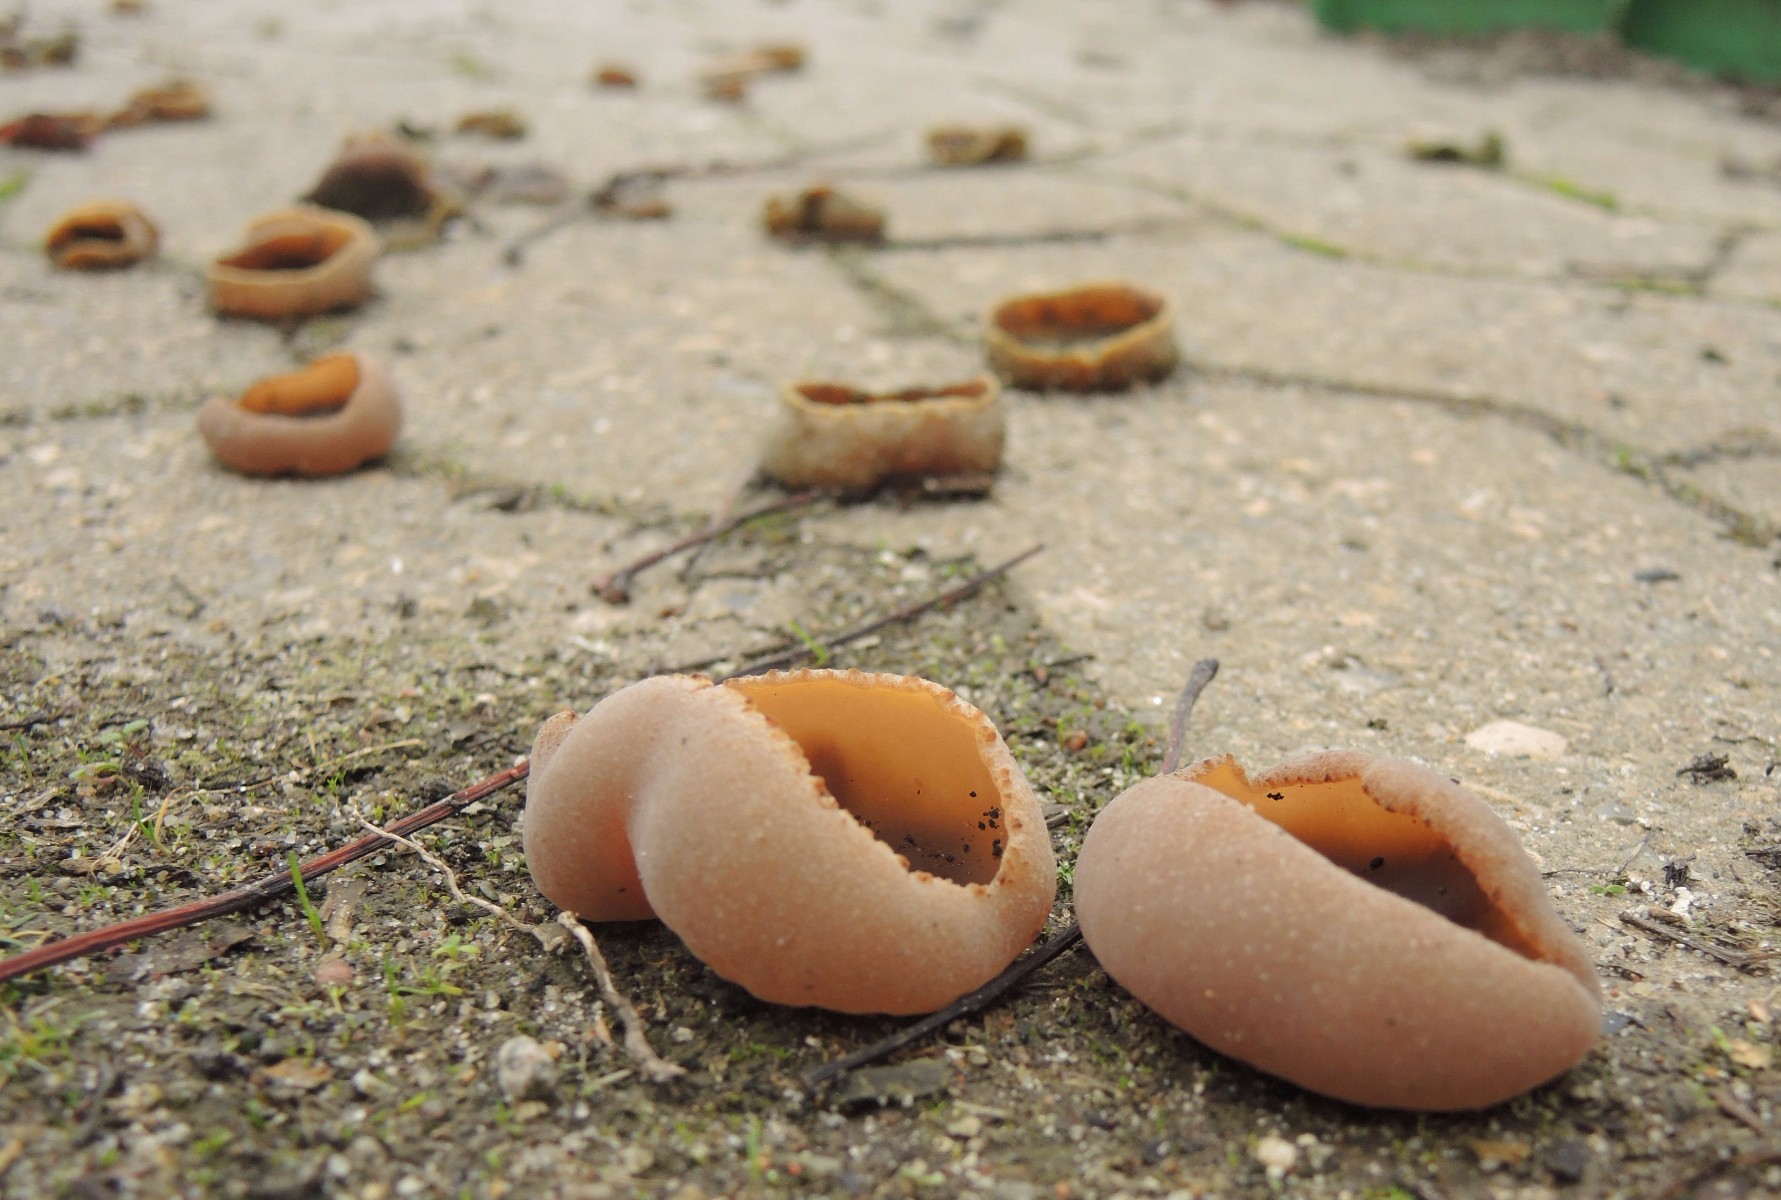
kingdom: Fungi
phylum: Ascomycota
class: Pezizomycetes
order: Pezizales
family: Pezizaceae
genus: Peziza
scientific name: Peziza varia
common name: Ved-bægersvamp
